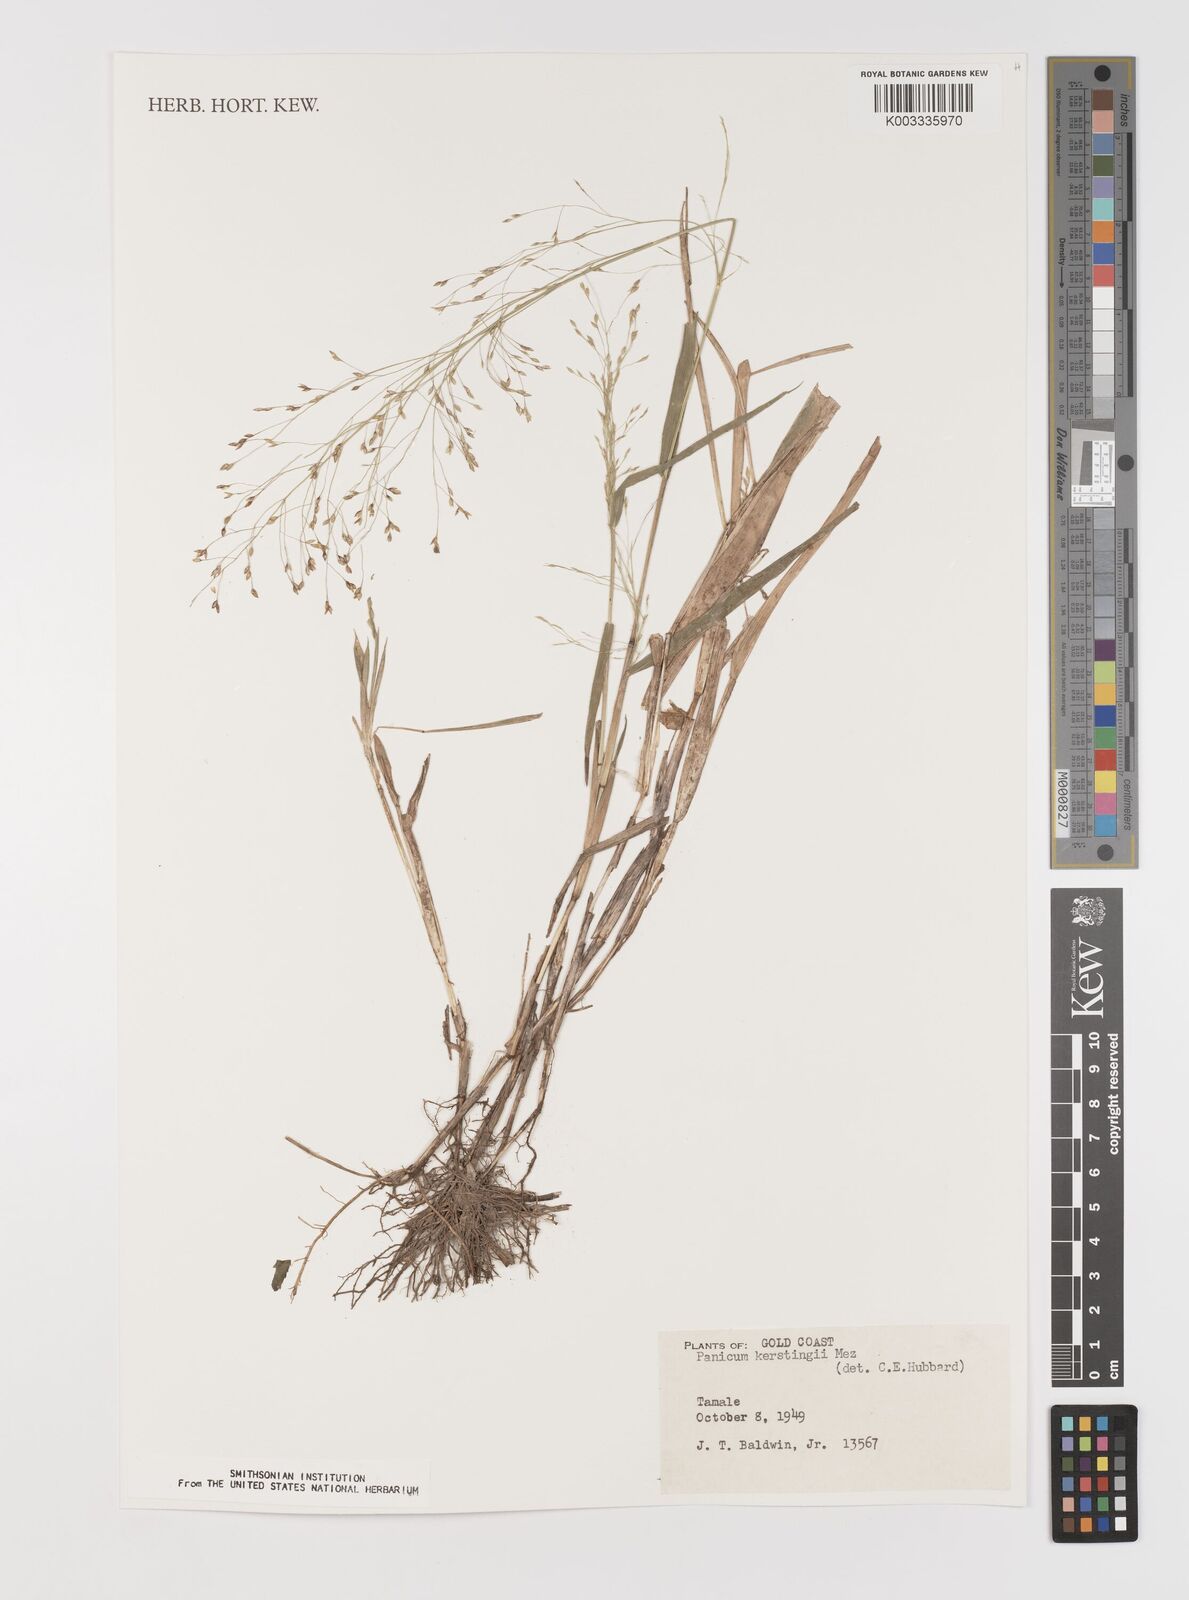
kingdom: Plantae
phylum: Tracheophyta
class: Liliopsida
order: Poales
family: Poaceae
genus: Panicum
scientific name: Panicum pansum
